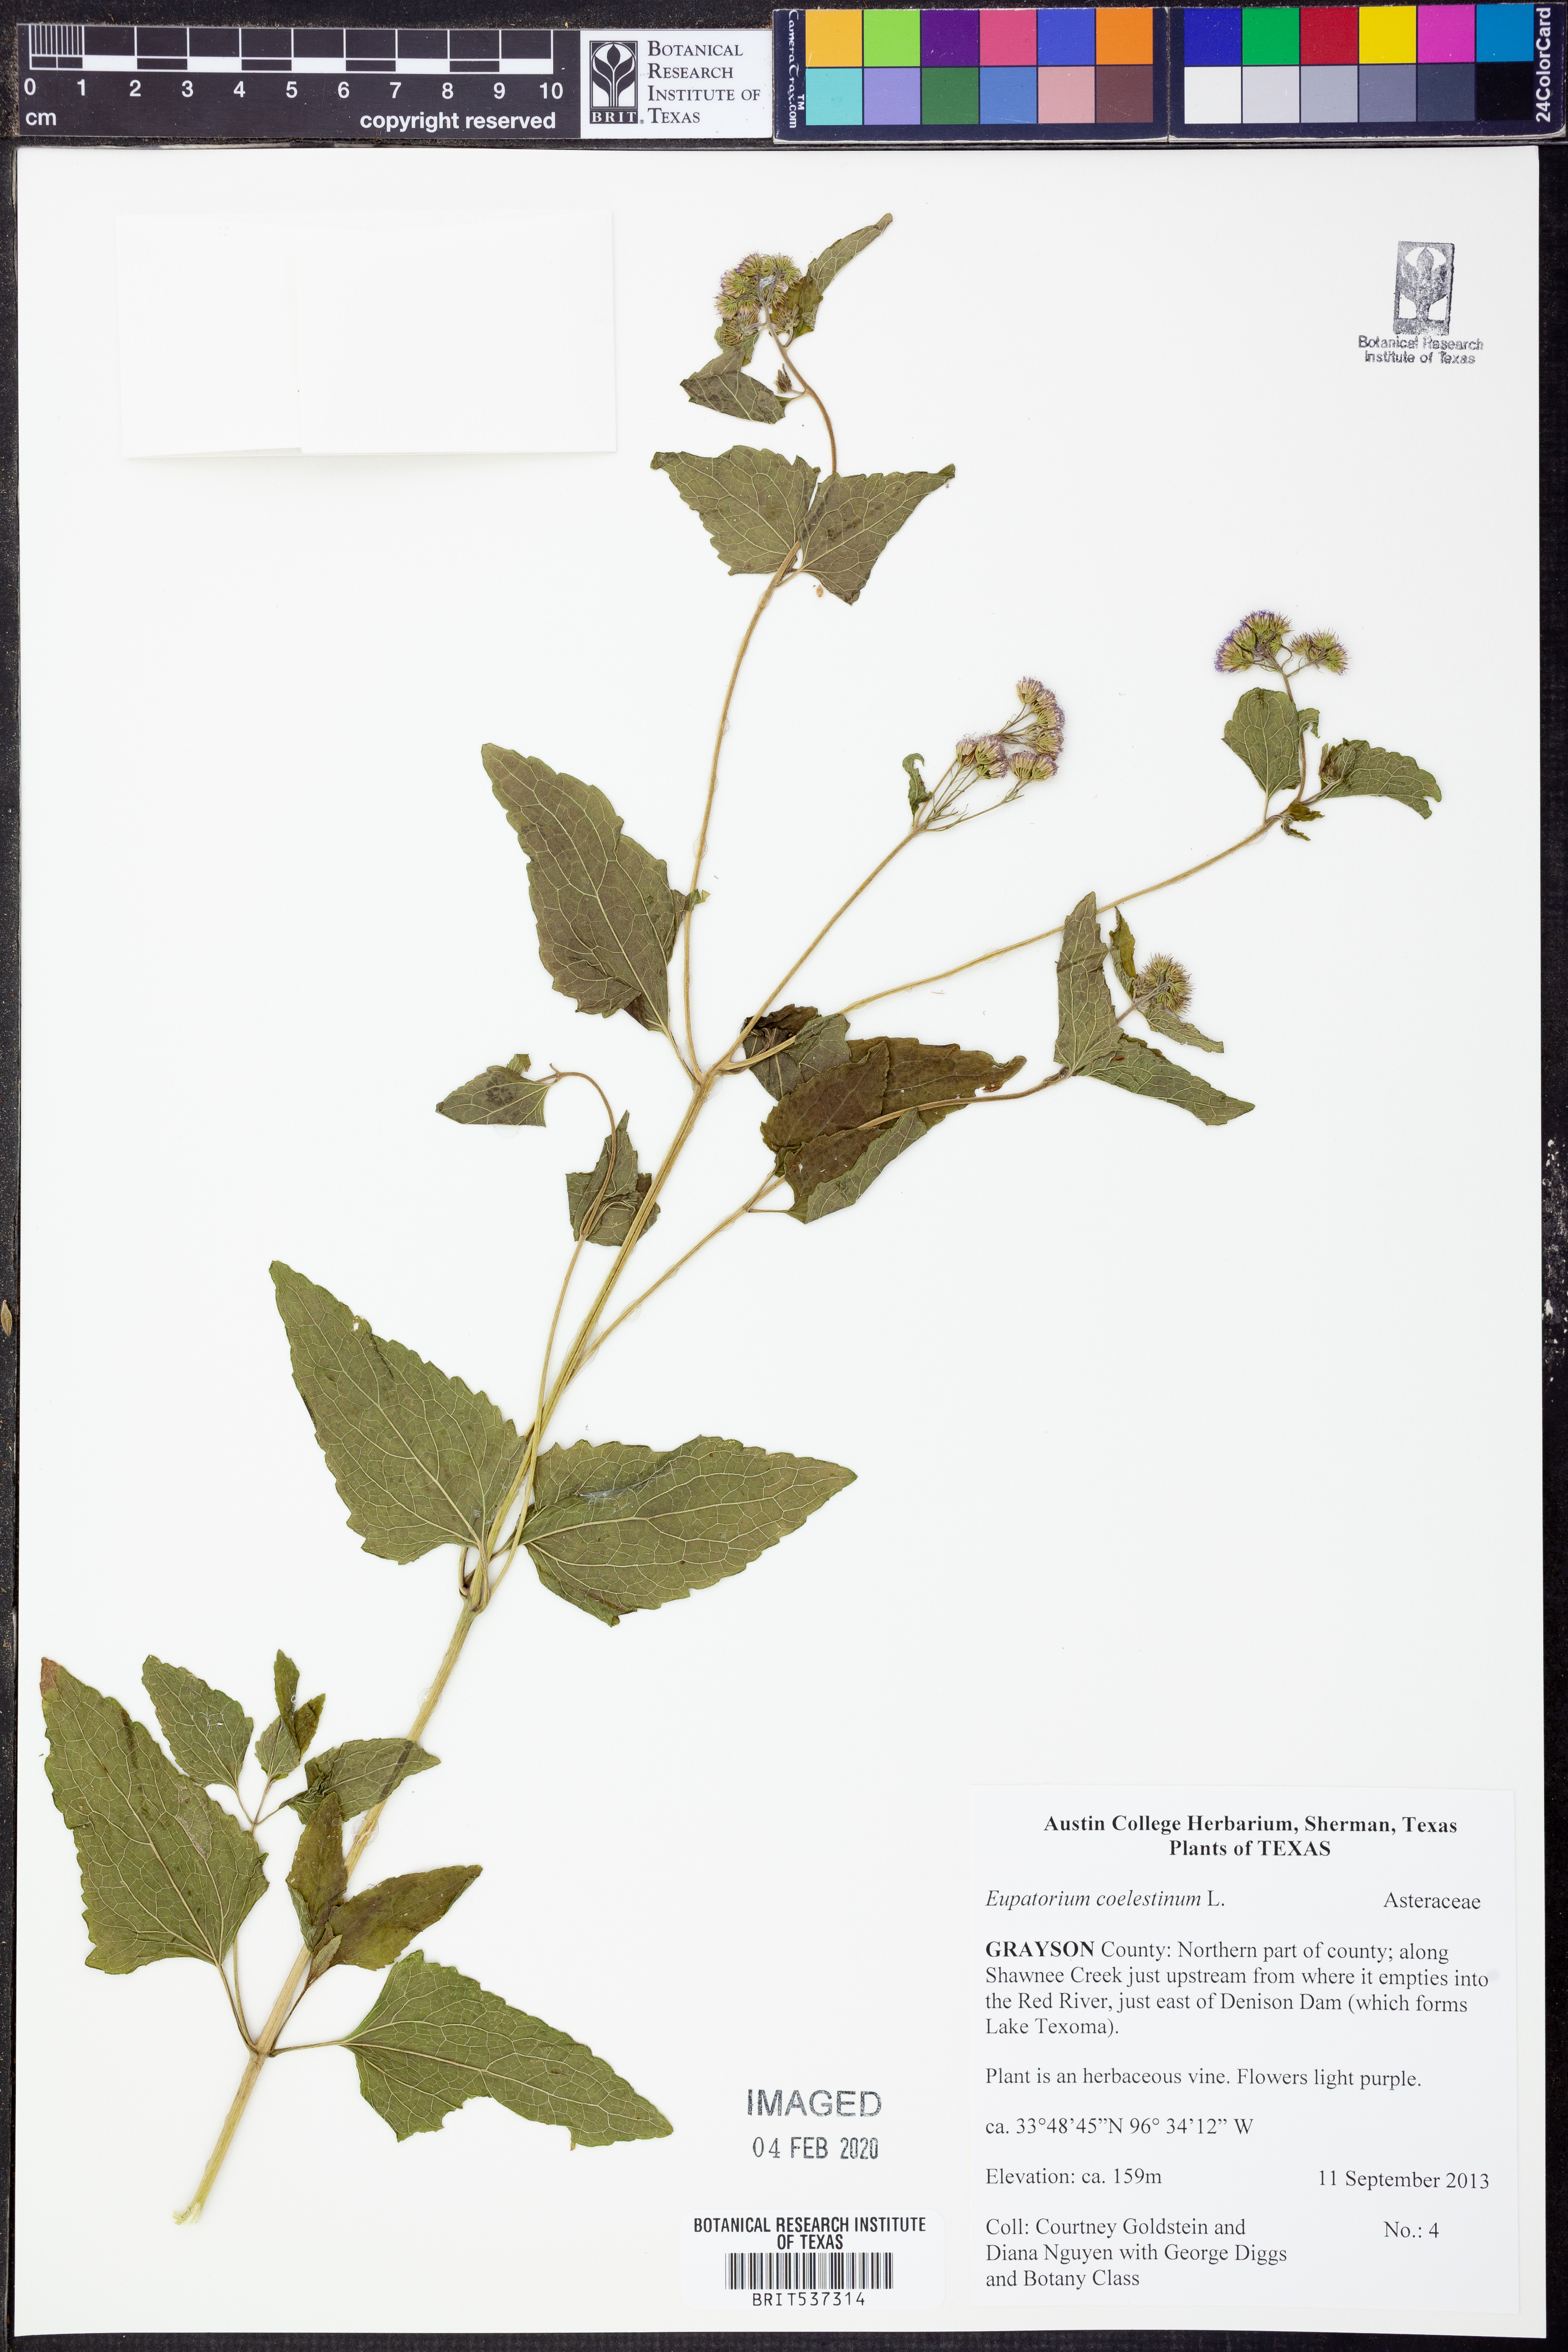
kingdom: Plantae
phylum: Tracheophyta
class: Magnoliopsida
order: Asterales
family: Asteraceae
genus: Conoclinium
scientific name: Conoclinium coelestinum
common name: Blue mistflower
